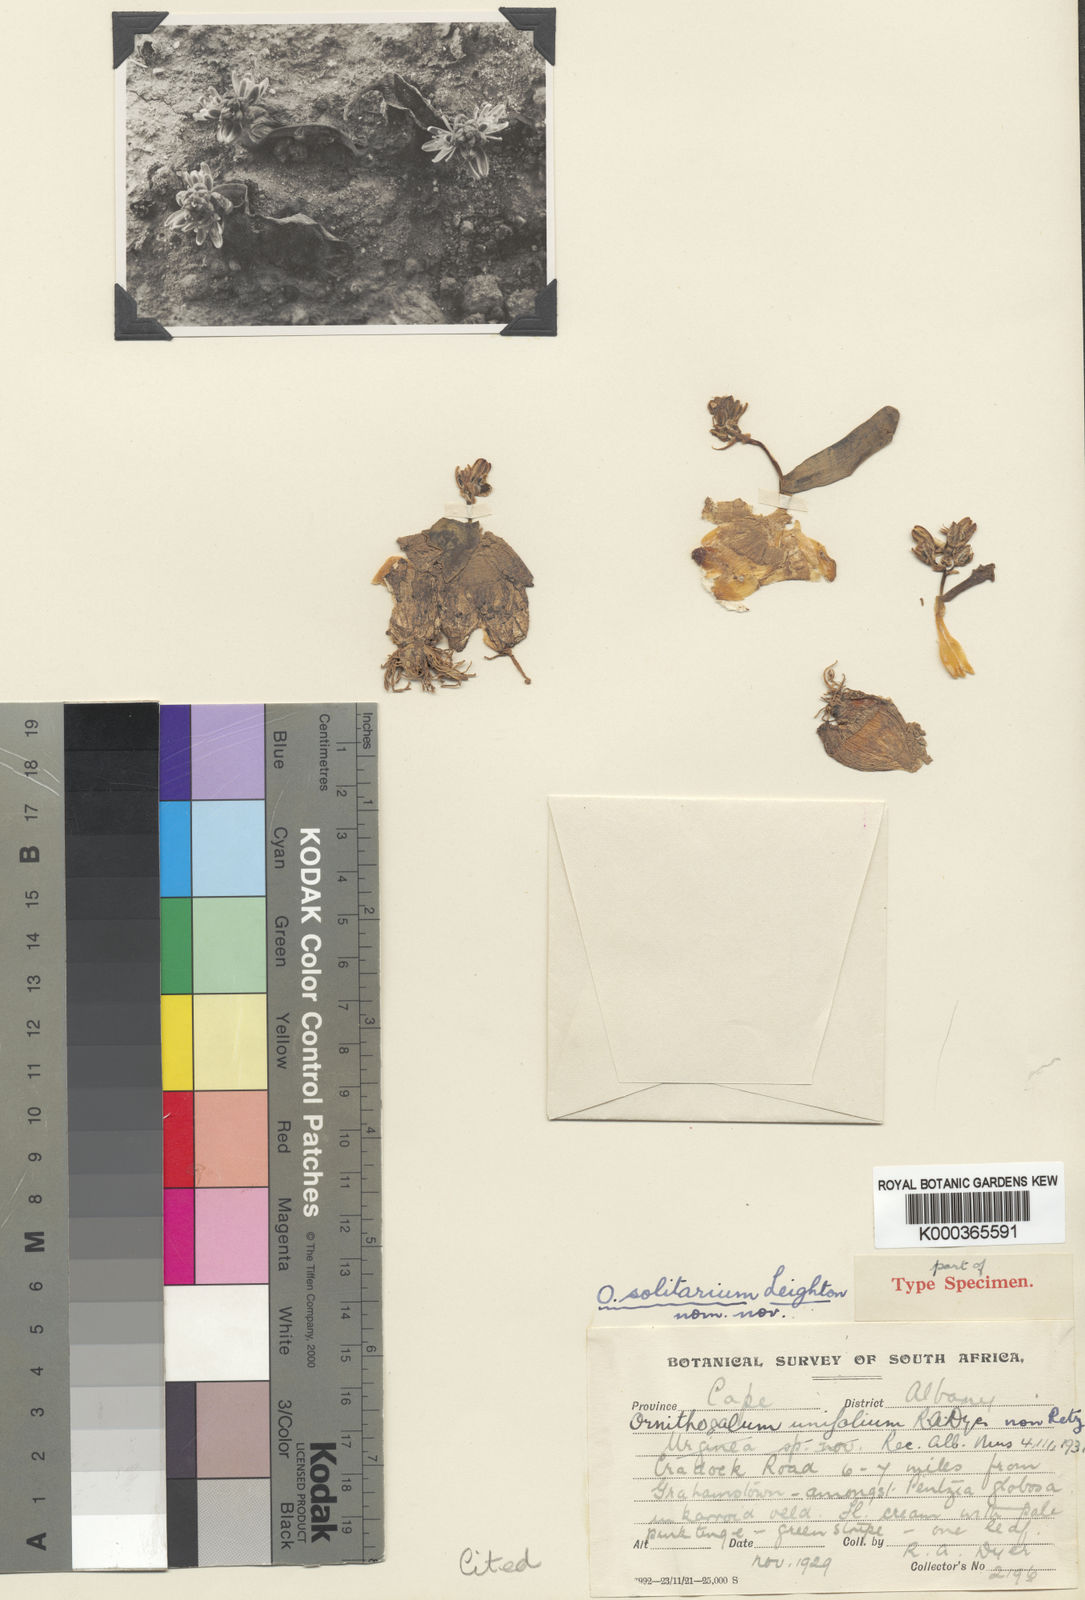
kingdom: Plantae
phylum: Tracheophyta
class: Liliopsida
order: Asparagales
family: Asparagaceae
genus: Albuca
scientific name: Albuca unifolia
